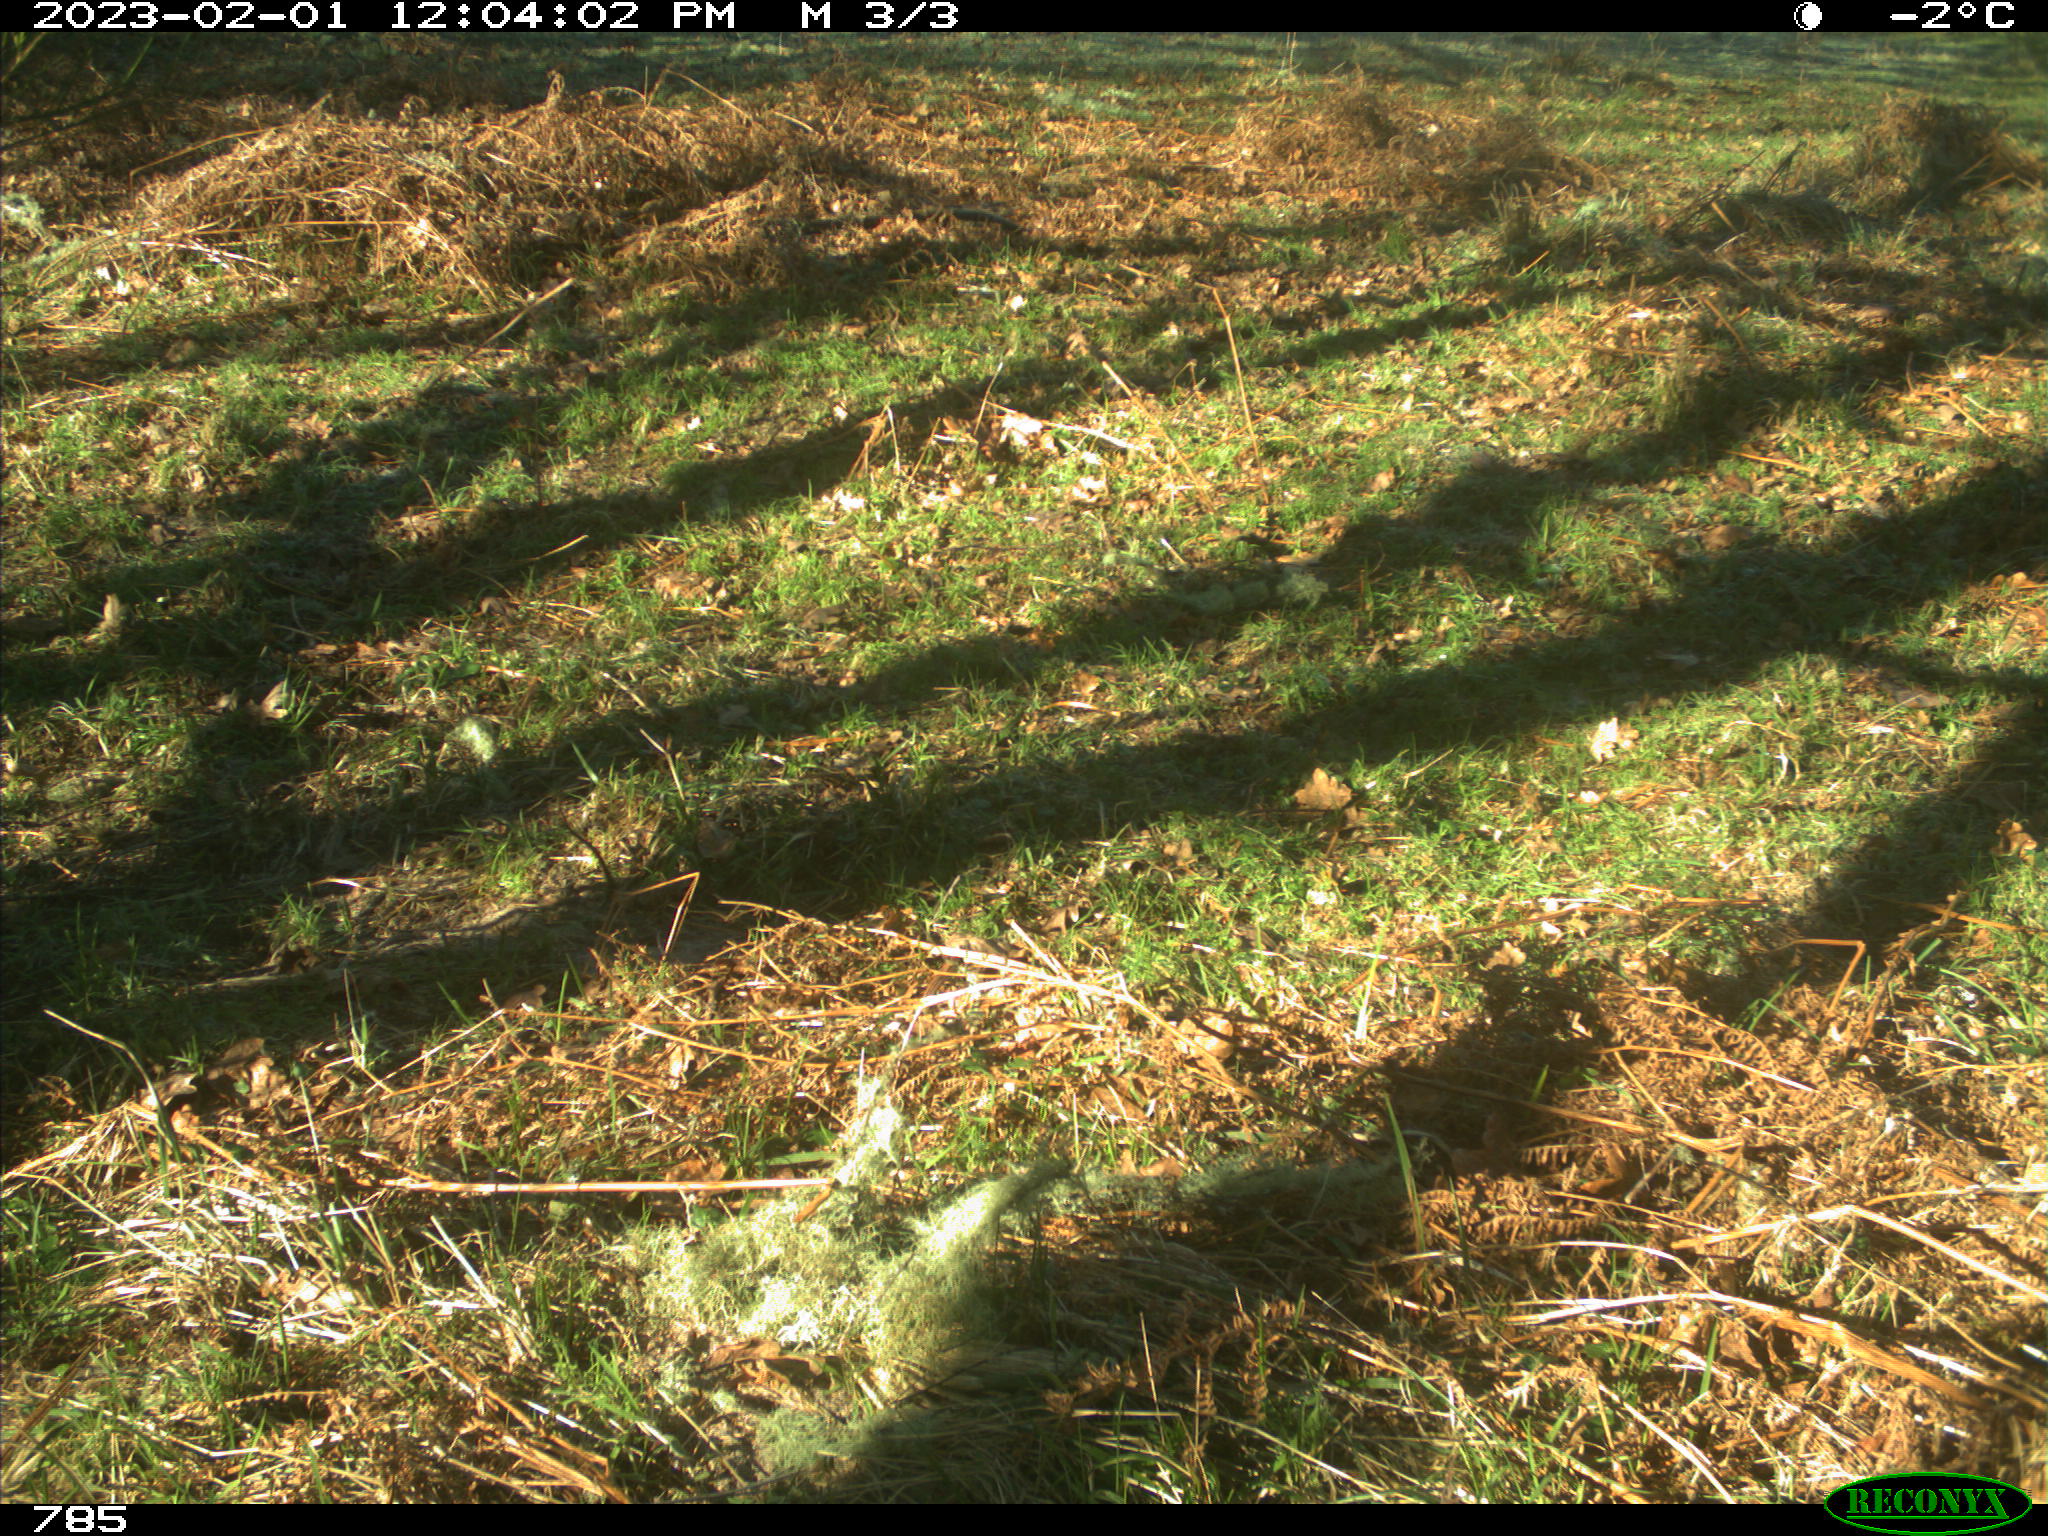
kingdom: Animalia
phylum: Chordata
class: Mammalia
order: Carnivora
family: Canidae
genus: Canis
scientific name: Canis lupus
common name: Gray wolf
